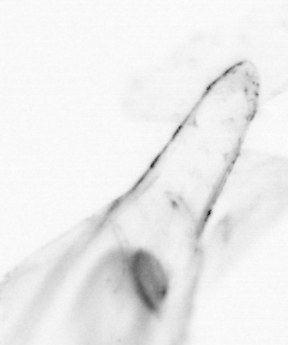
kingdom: Animalia
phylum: Chaetognatha
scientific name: Chaetognatha
